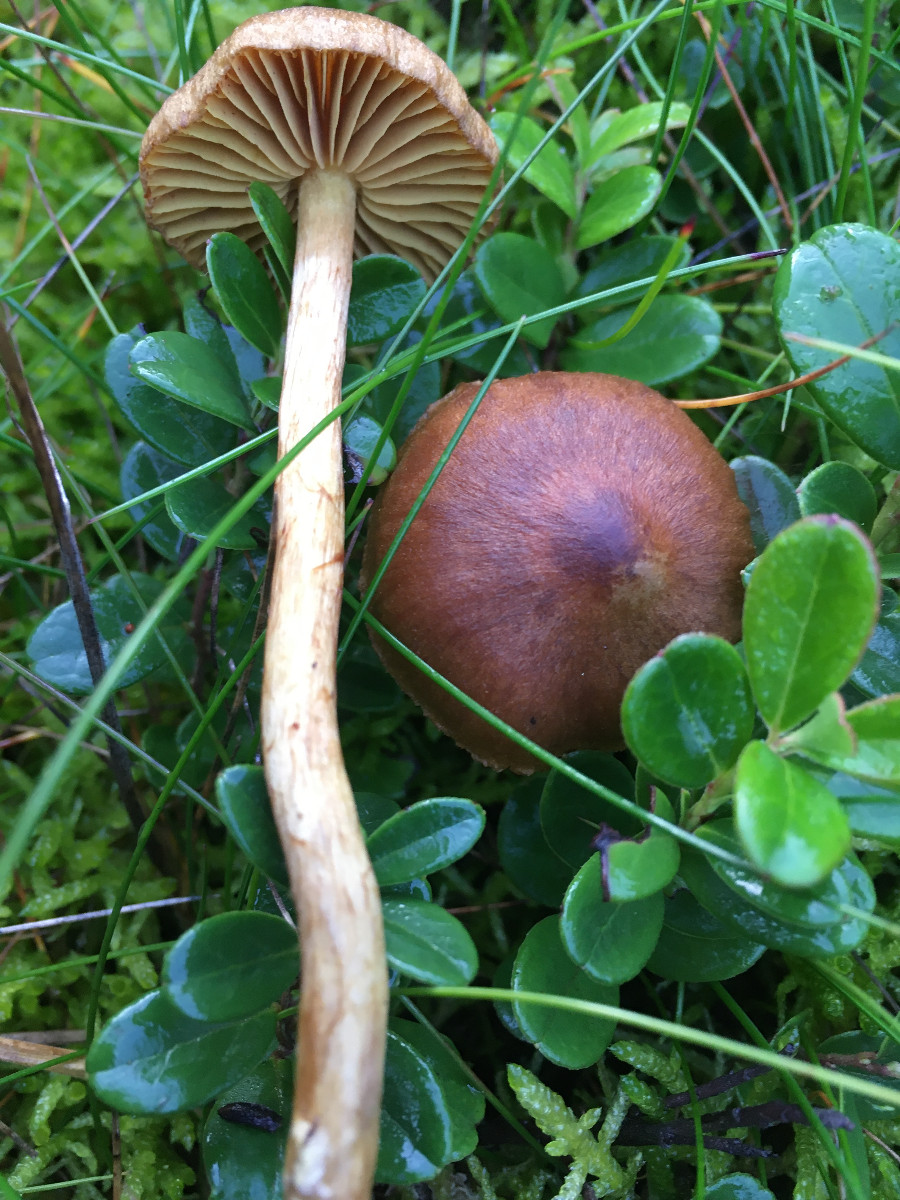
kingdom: Fungi
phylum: Basidiomycota
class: Agaricomycetes
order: Agaricales
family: Cortinariaceae
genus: Cortinarius
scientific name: Cortinarius
